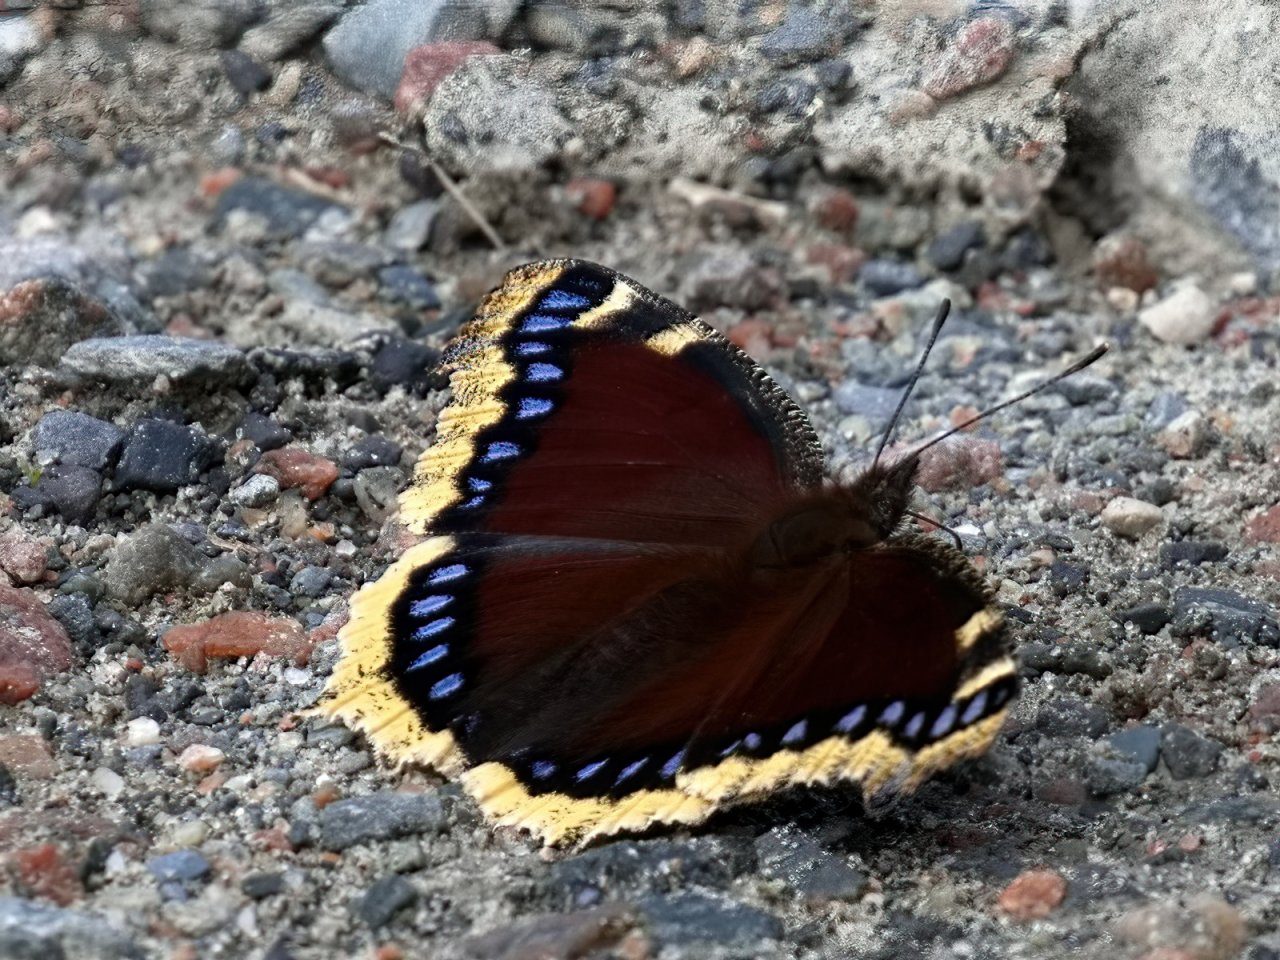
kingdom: Animalia
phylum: Arthropoda
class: Insecta
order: Lepidoptera
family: Nymphalidae
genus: Nymphalis
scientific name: Nymphalis antiopa
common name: Mourning Cloak
